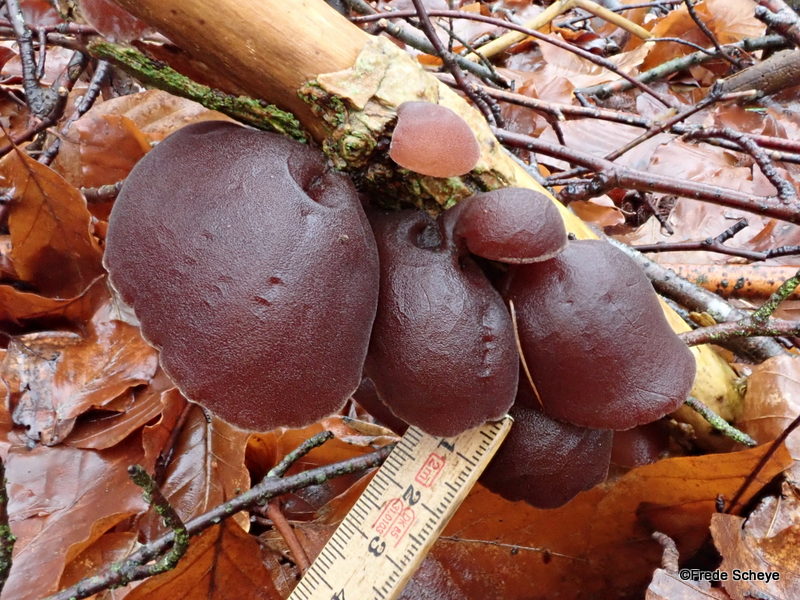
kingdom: Fungi
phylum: Basidiomycota
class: Agaricomycetes
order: Auriculariales
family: Auriculariaceae
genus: Auricularia
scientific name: Auricularia auricula-judae
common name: almindelig judasøre
